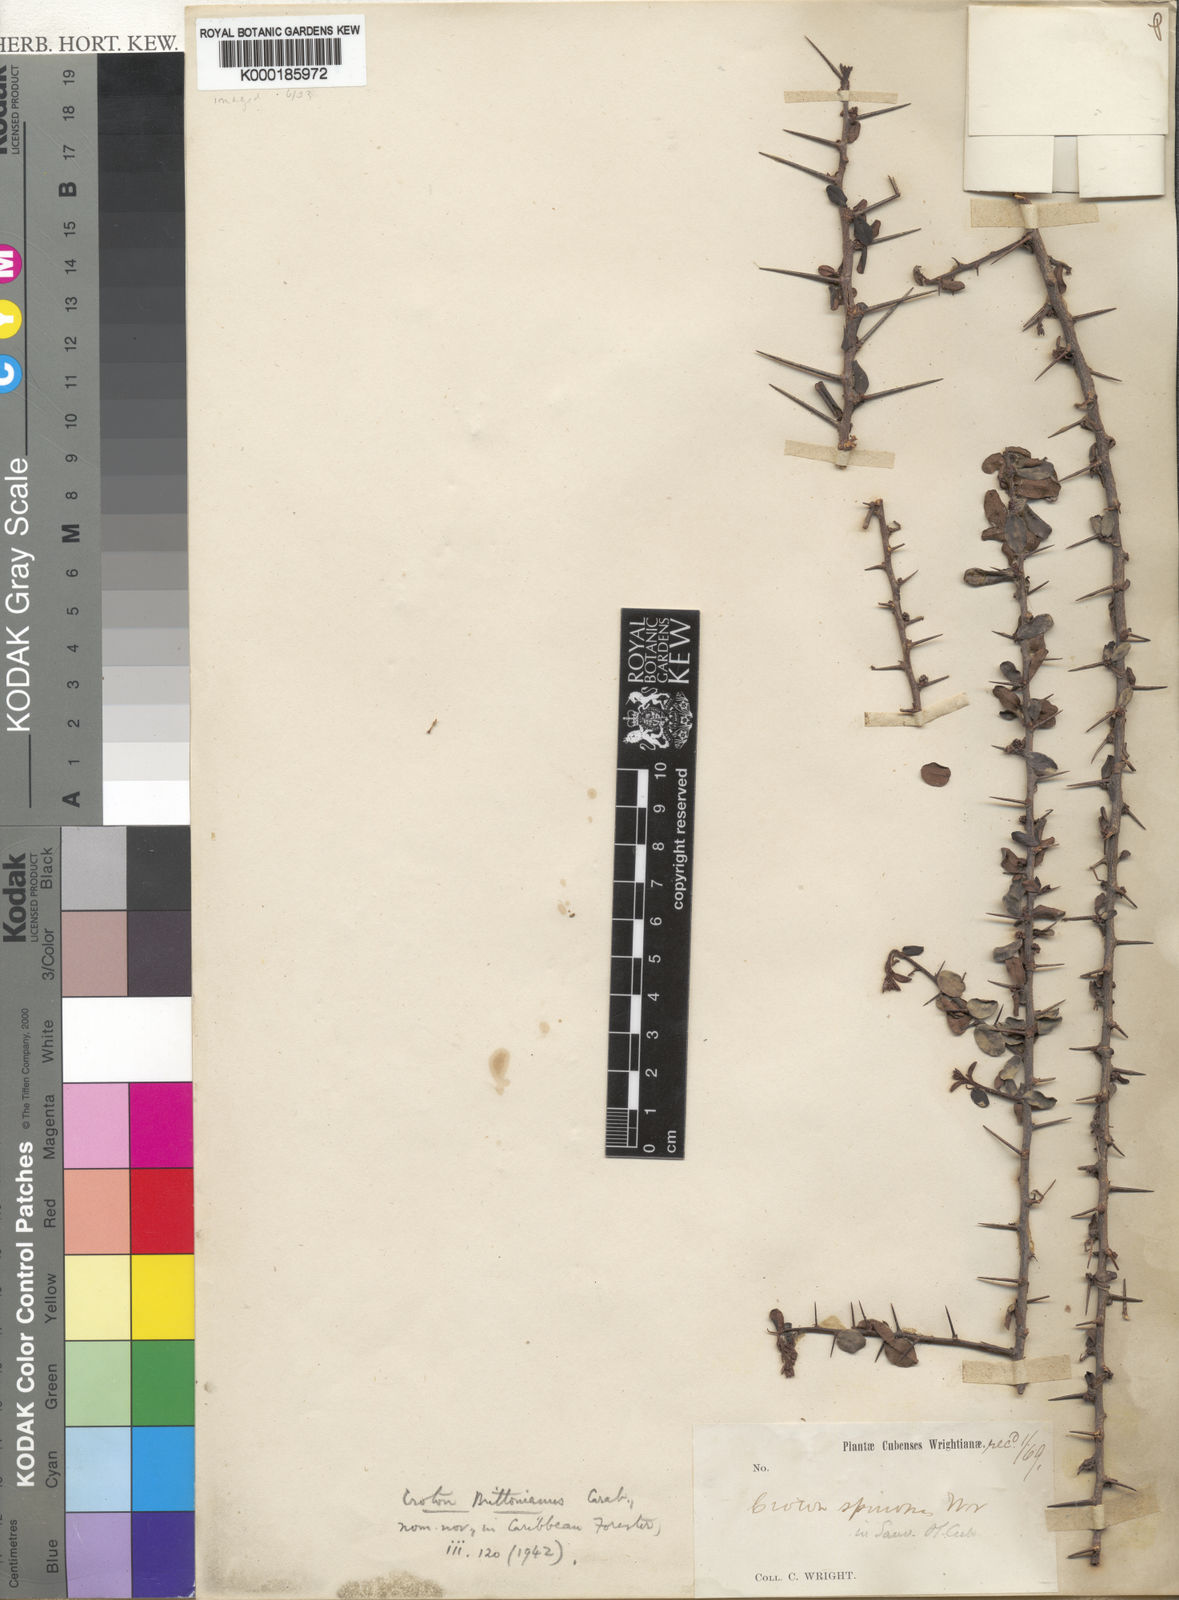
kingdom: Plantae
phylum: Tracheophyta
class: Magnoliopsida
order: Malpighiales
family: Euphorbiaceae
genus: Croton
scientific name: Croton brittonianus
